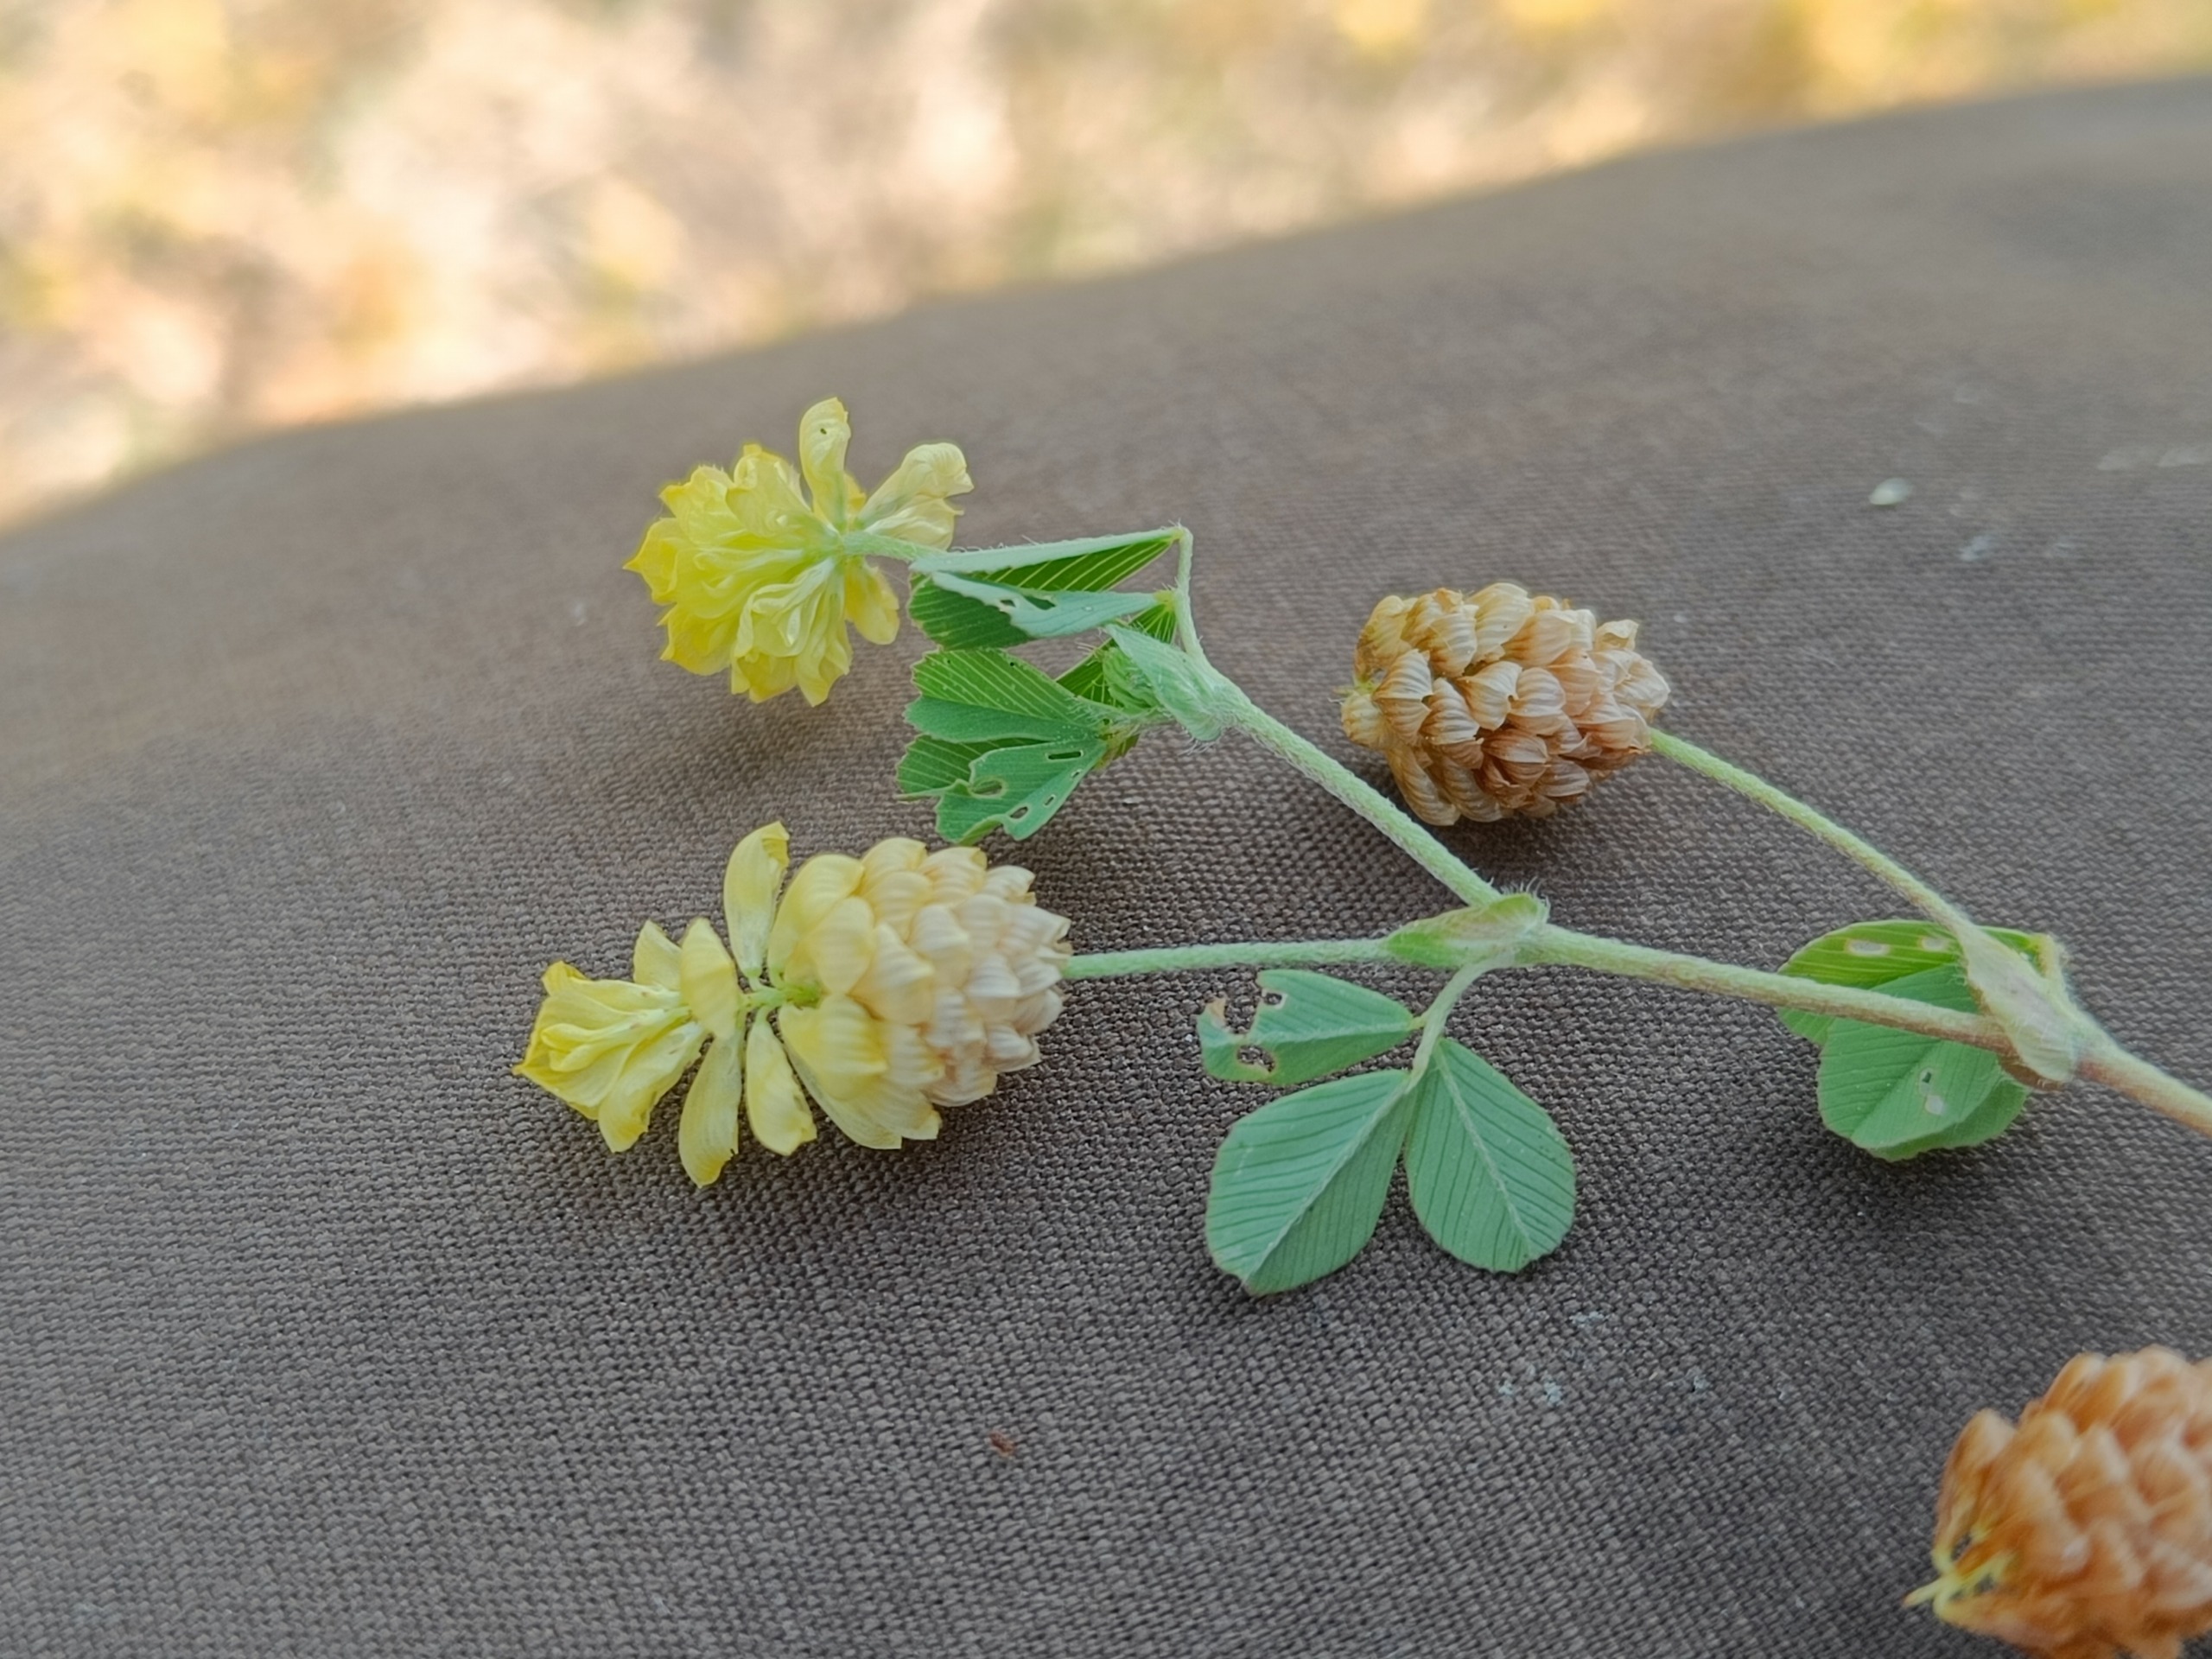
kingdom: Plantae
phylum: Tracheophyta
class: Magnoliopsida
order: Fabales
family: Fabaceae
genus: Trifolium
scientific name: Trifolium campestre
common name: Gul kløver
